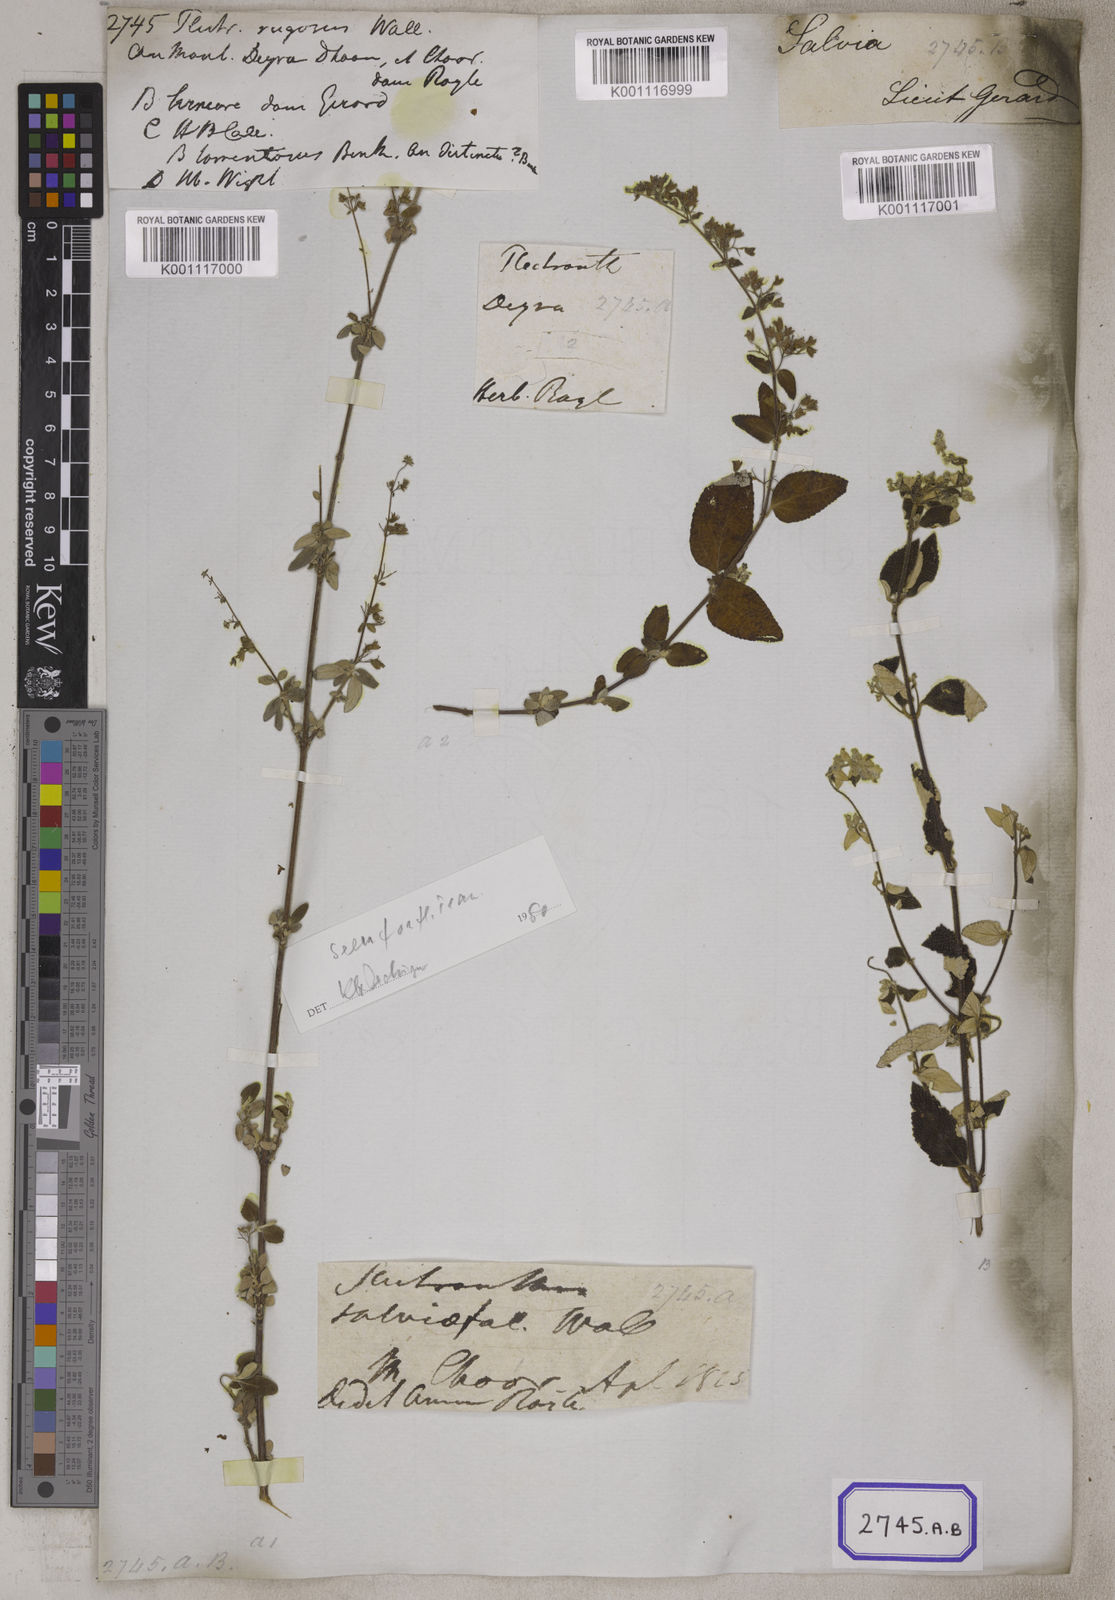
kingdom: Plantae
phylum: Tracheophyta
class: Magnoliopsida
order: Lamiales
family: Lamiaceae
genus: Plectranthus
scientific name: Plectranthus
